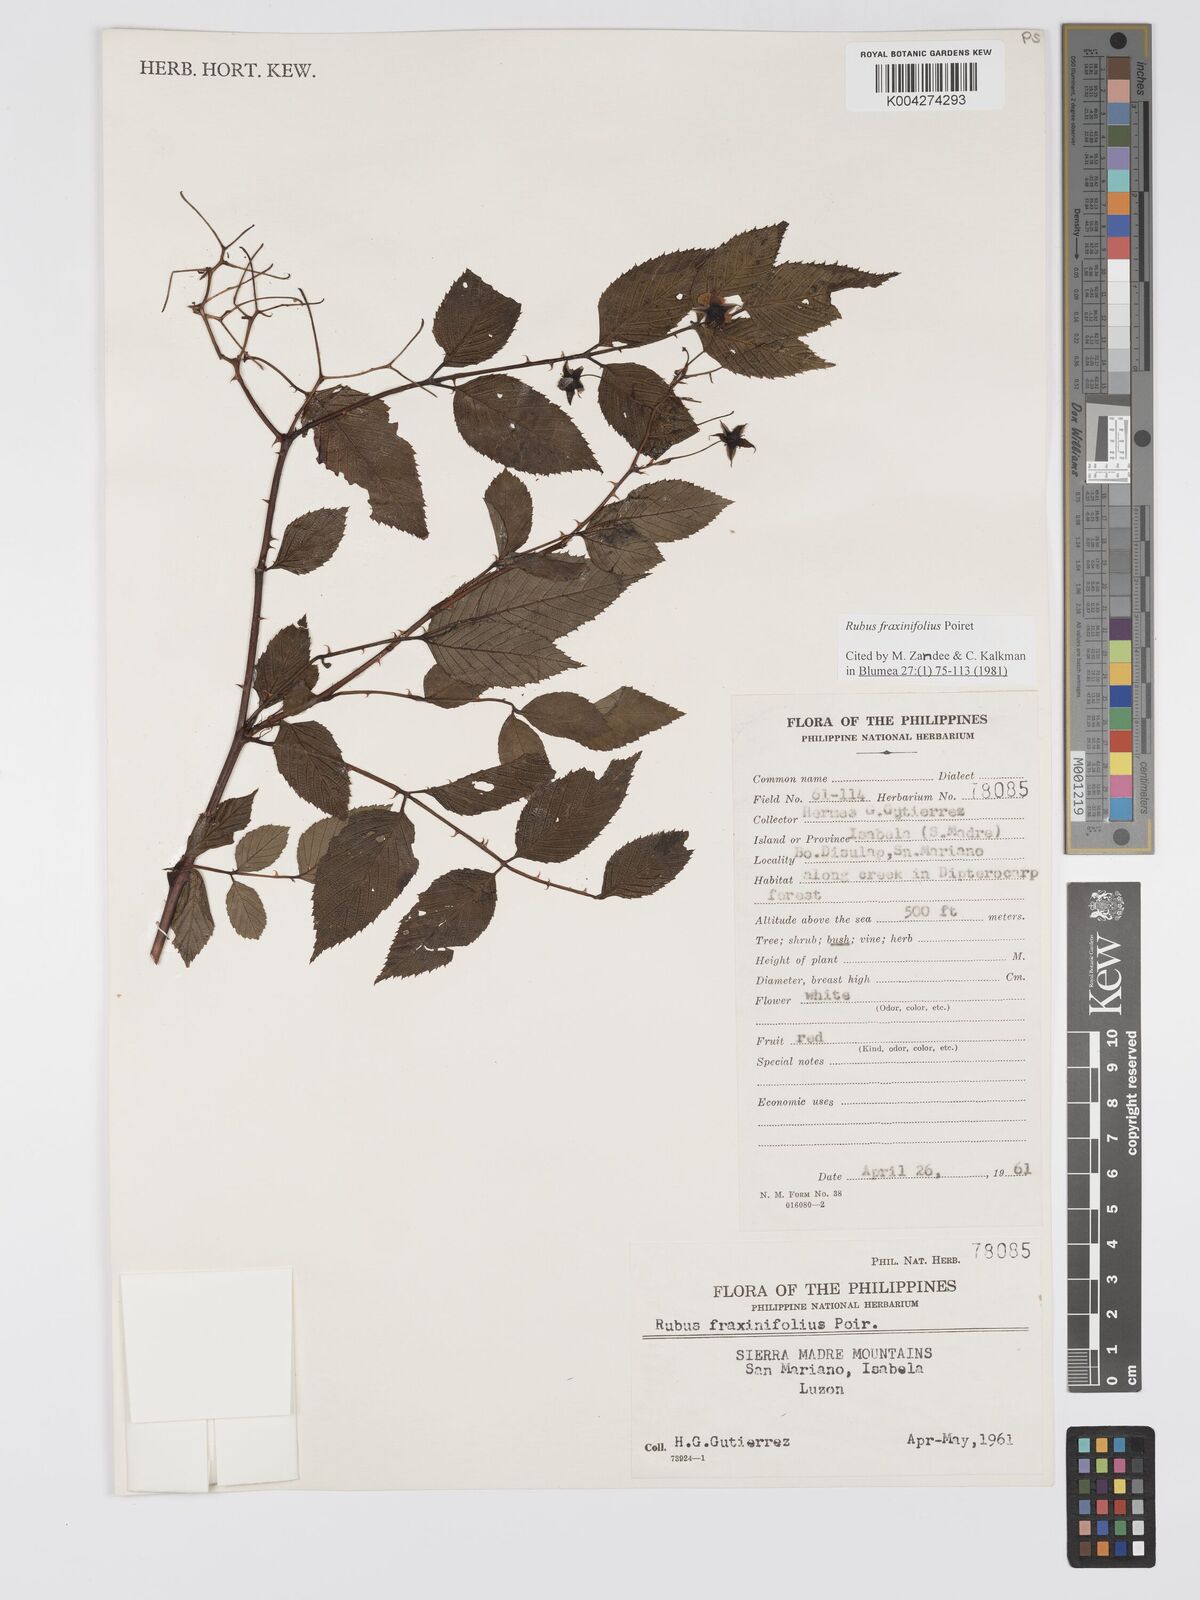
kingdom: Plantae
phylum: Tracheophyta
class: Magnoliopsida
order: Rosales
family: Rosaceae
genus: Rubus
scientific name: Rubus fraxinifolius
